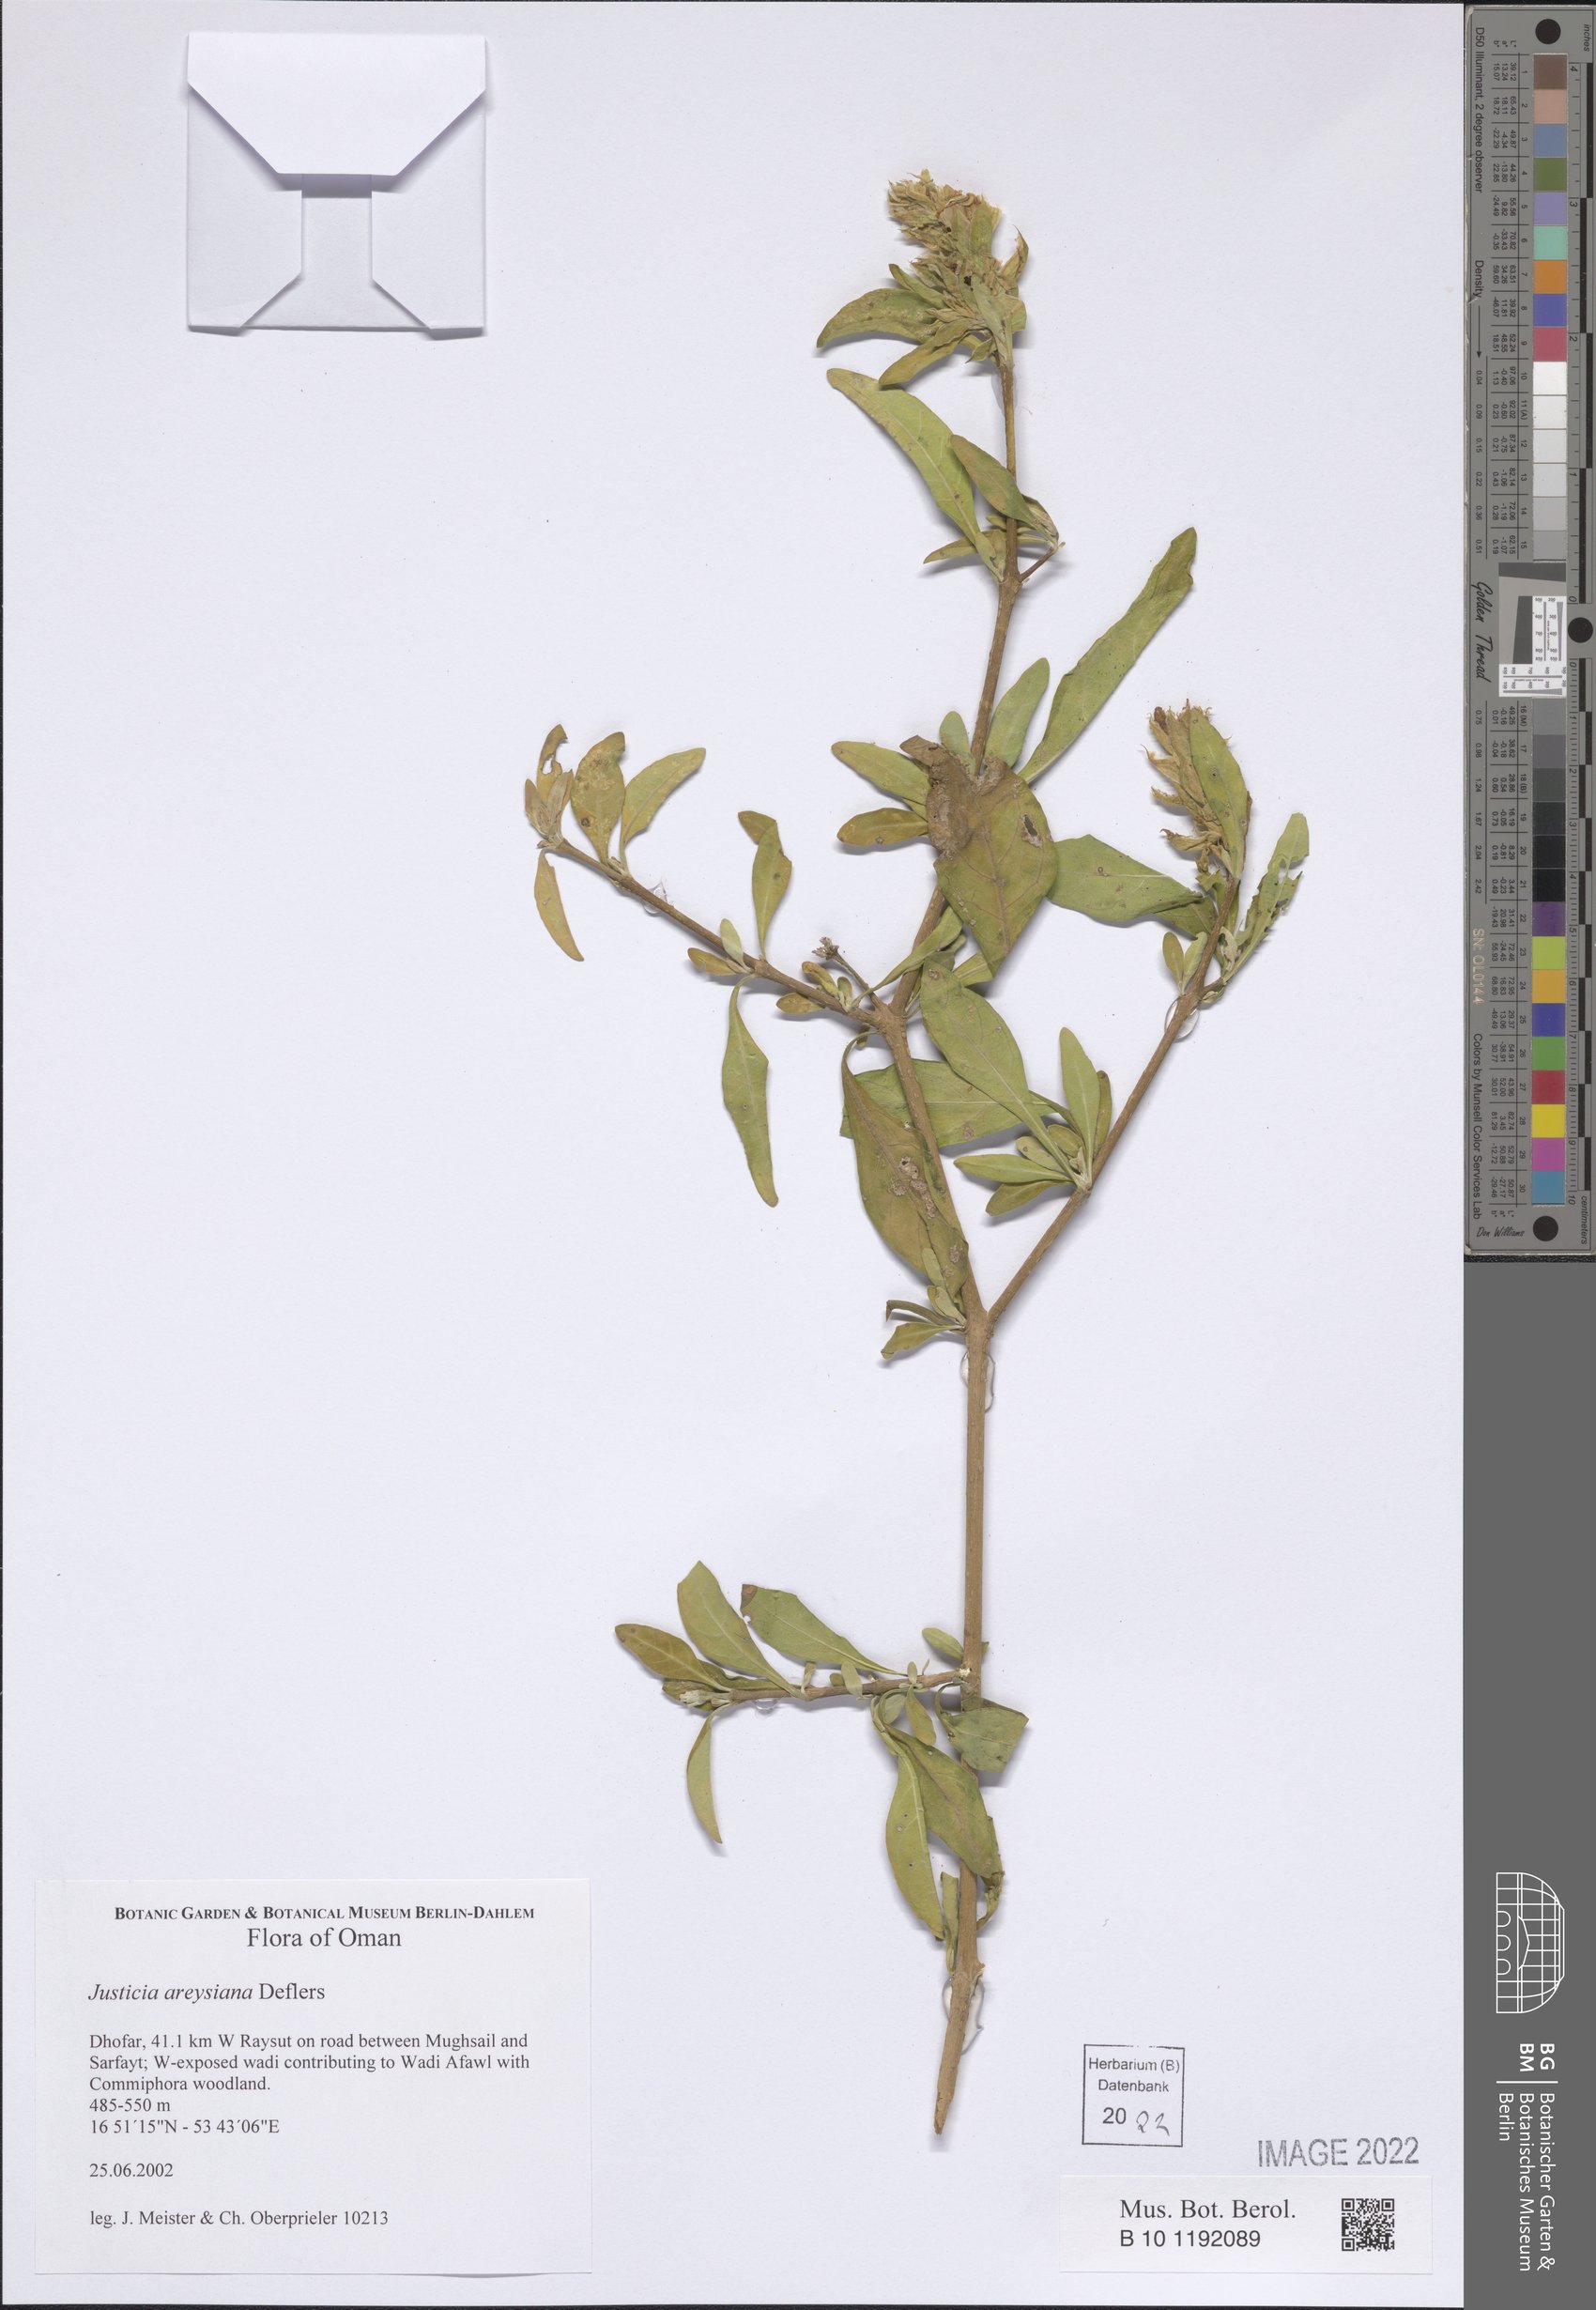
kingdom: Plantae
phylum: Tracheophyta
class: Magnoliopsida
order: Lamiales
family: Acanthaceae
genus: Justicia
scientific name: Justicia areysiana
